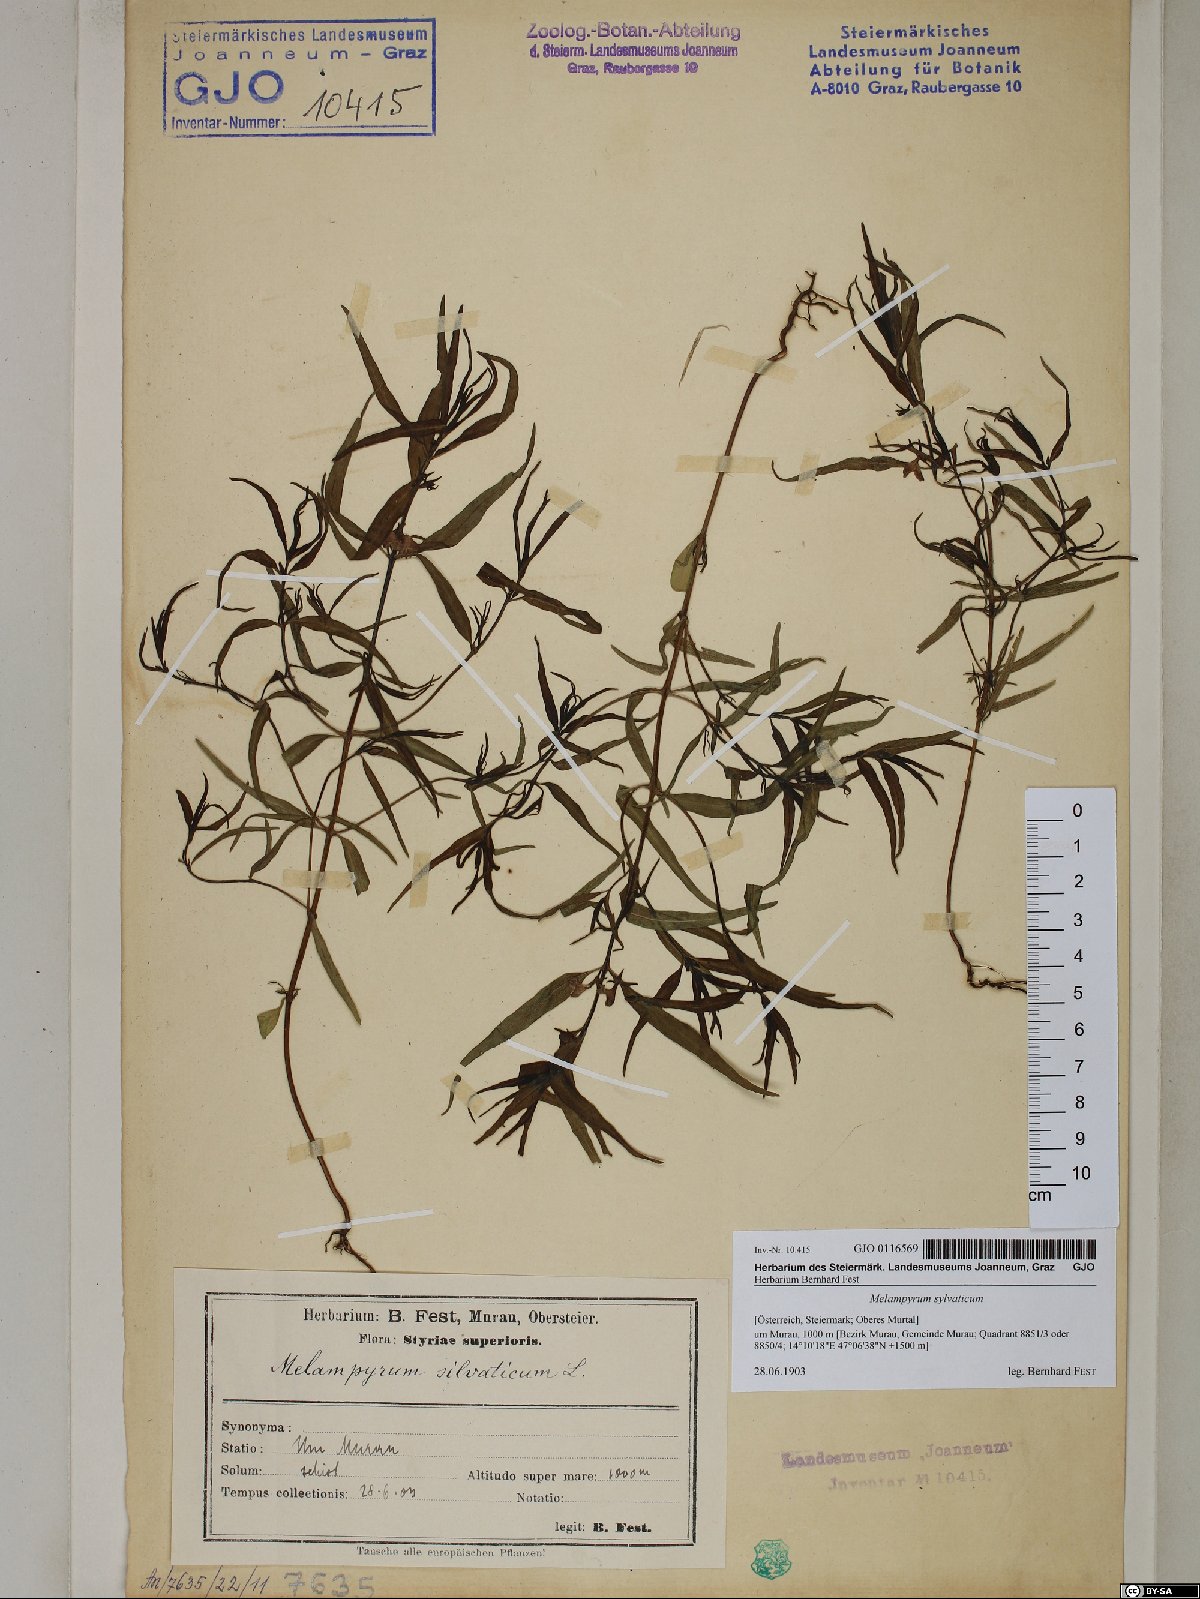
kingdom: Plantae
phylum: Tracheophyta
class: Magnoliopsida
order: Lamiales
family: Orobanchaceae
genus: Melampyrum
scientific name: Melampyrum sylvaticum
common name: Small cow-wheat
